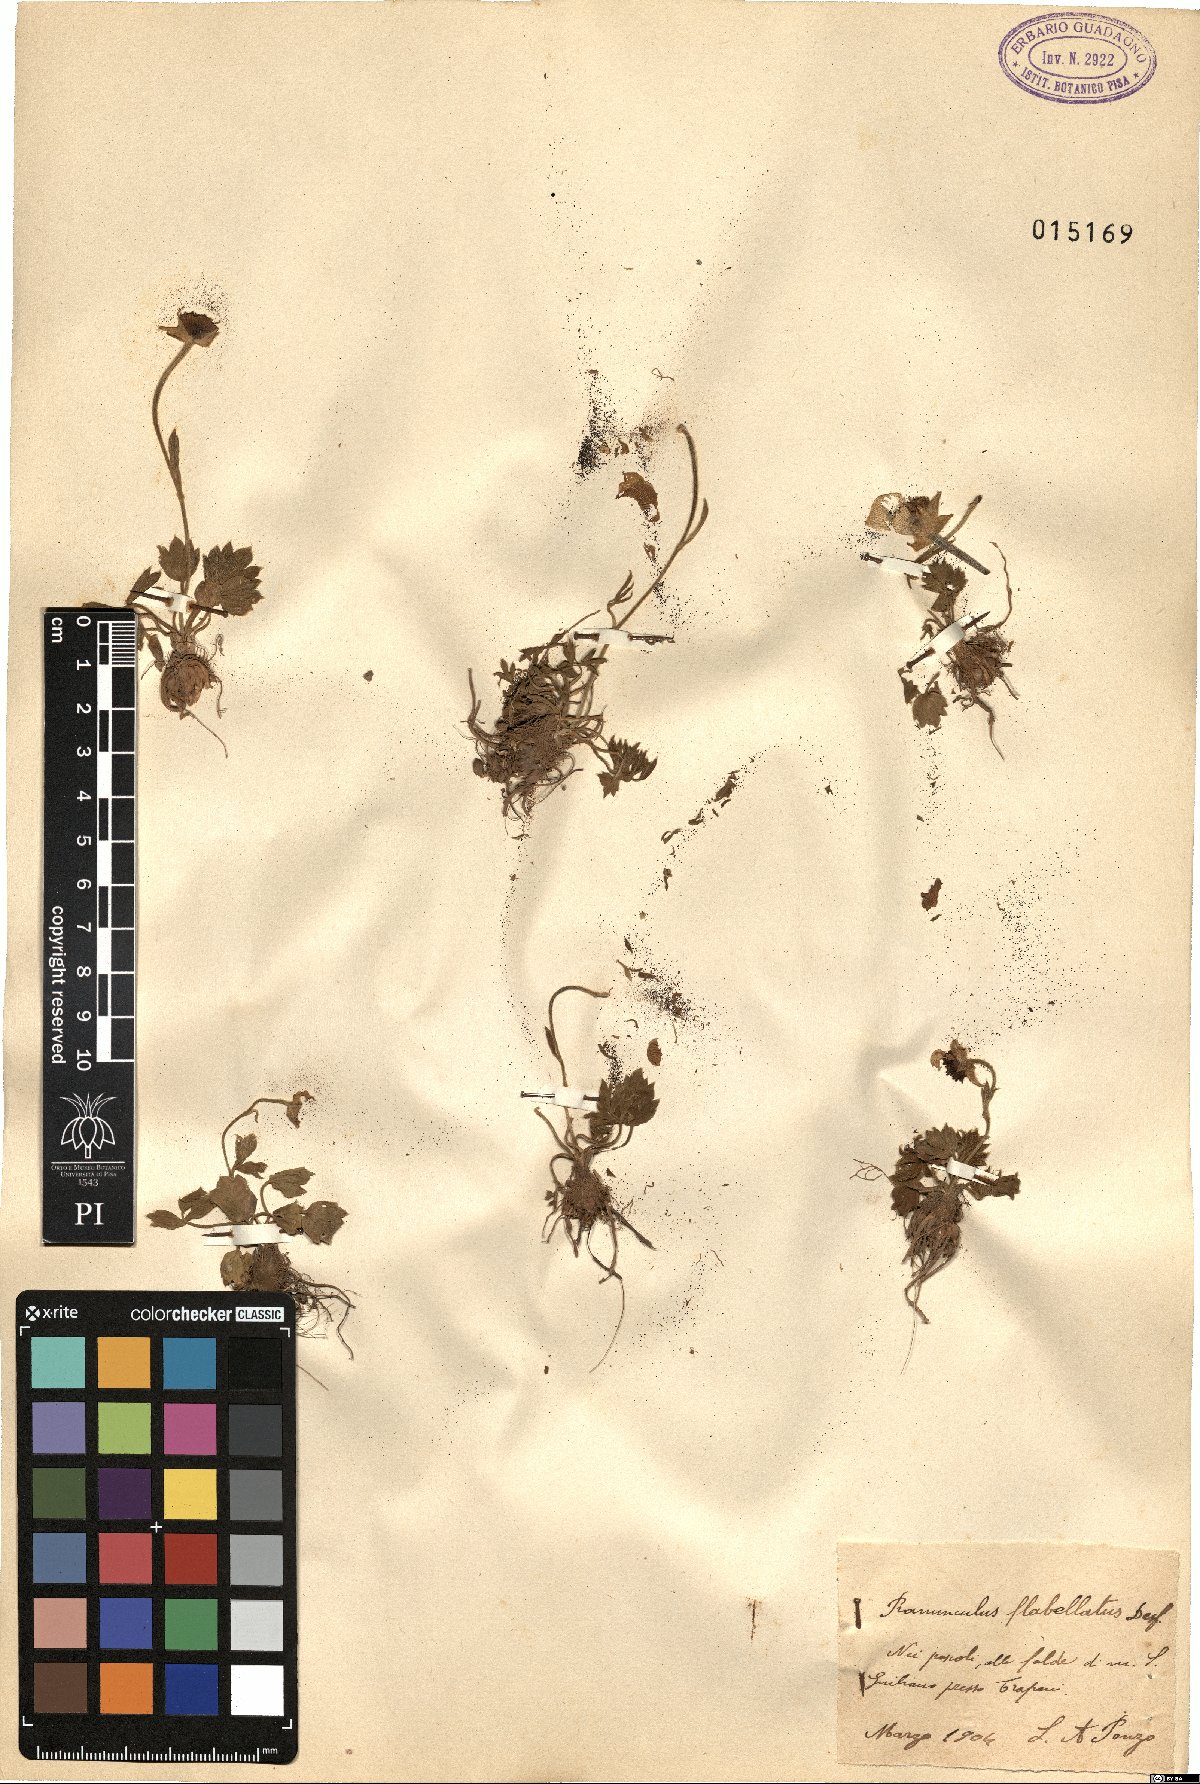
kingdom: Plantae
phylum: Tracheophyta
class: Magnoliopsida
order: Ranunculales
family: Ranunculaceae
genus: Ranunculus
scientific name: Ranunculus paludosus
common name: Jersey buttercup
